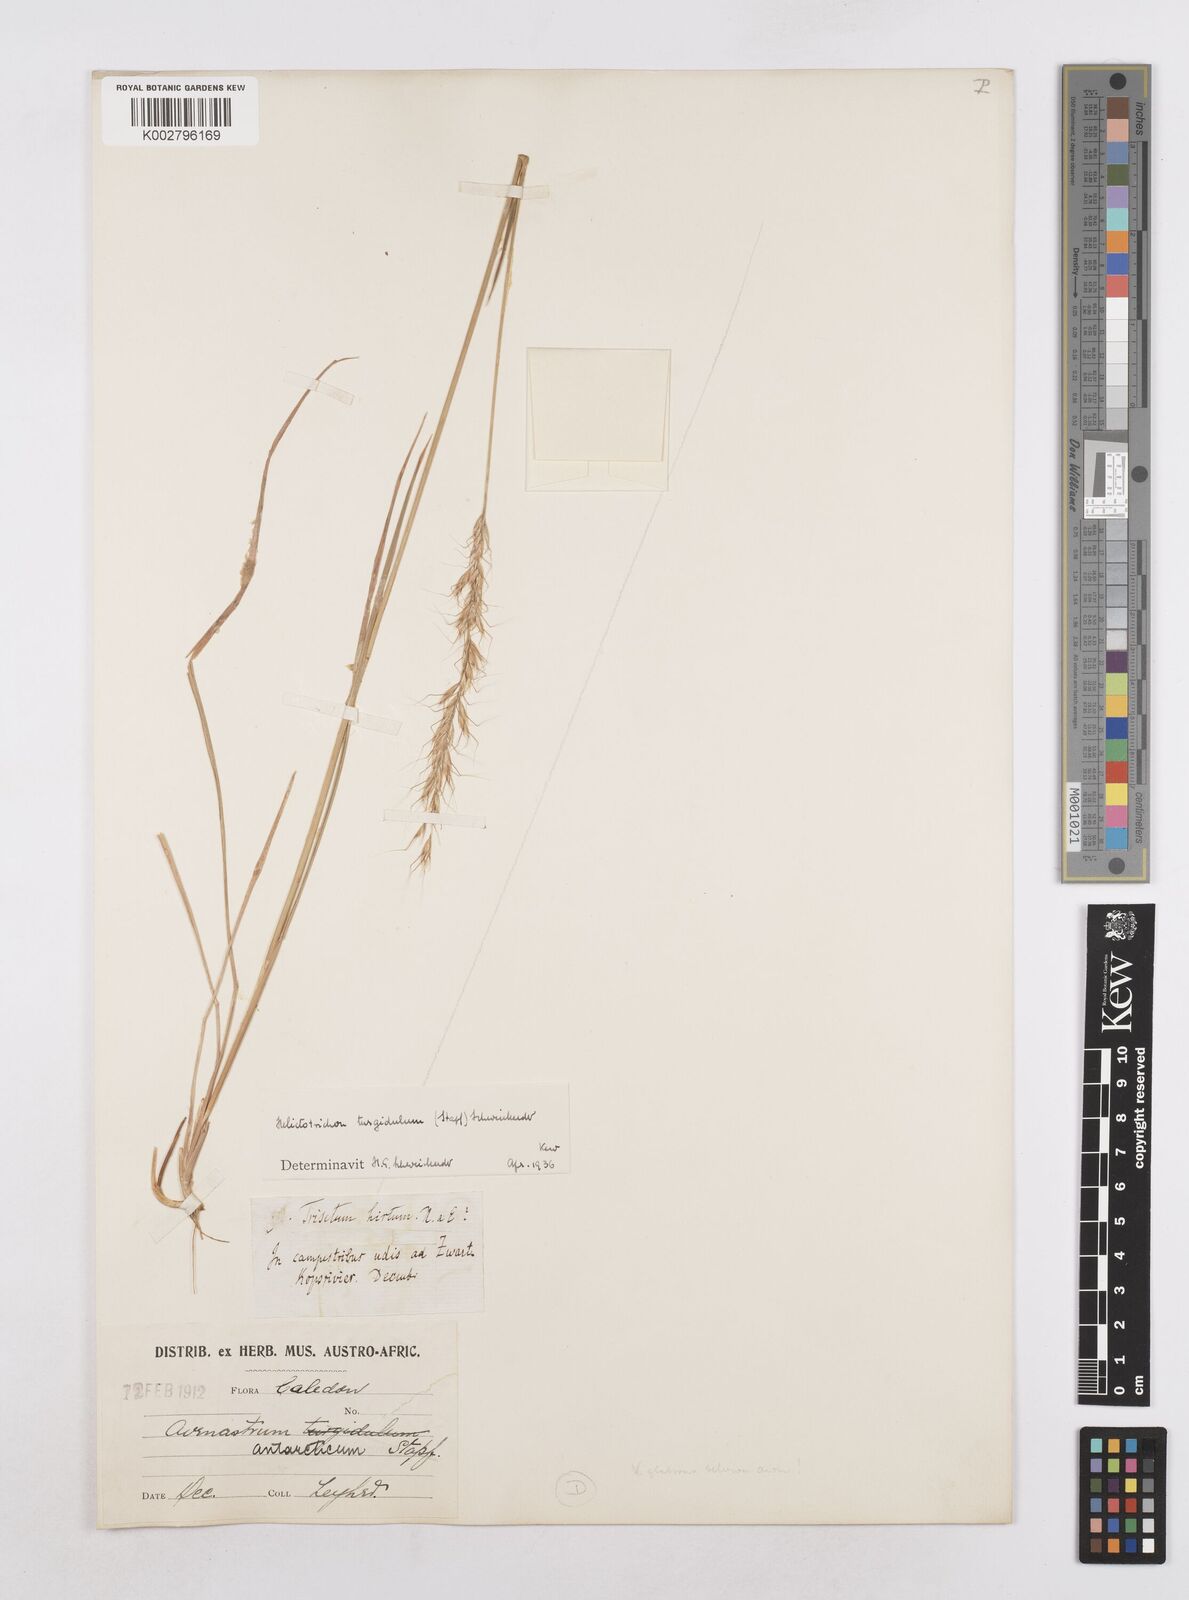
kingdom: Plantae
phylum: Tracheophyta
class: Liliopsida
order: Poales
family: Poaceae
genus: Trisetopsis
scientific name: Trisetopsis imberbis
